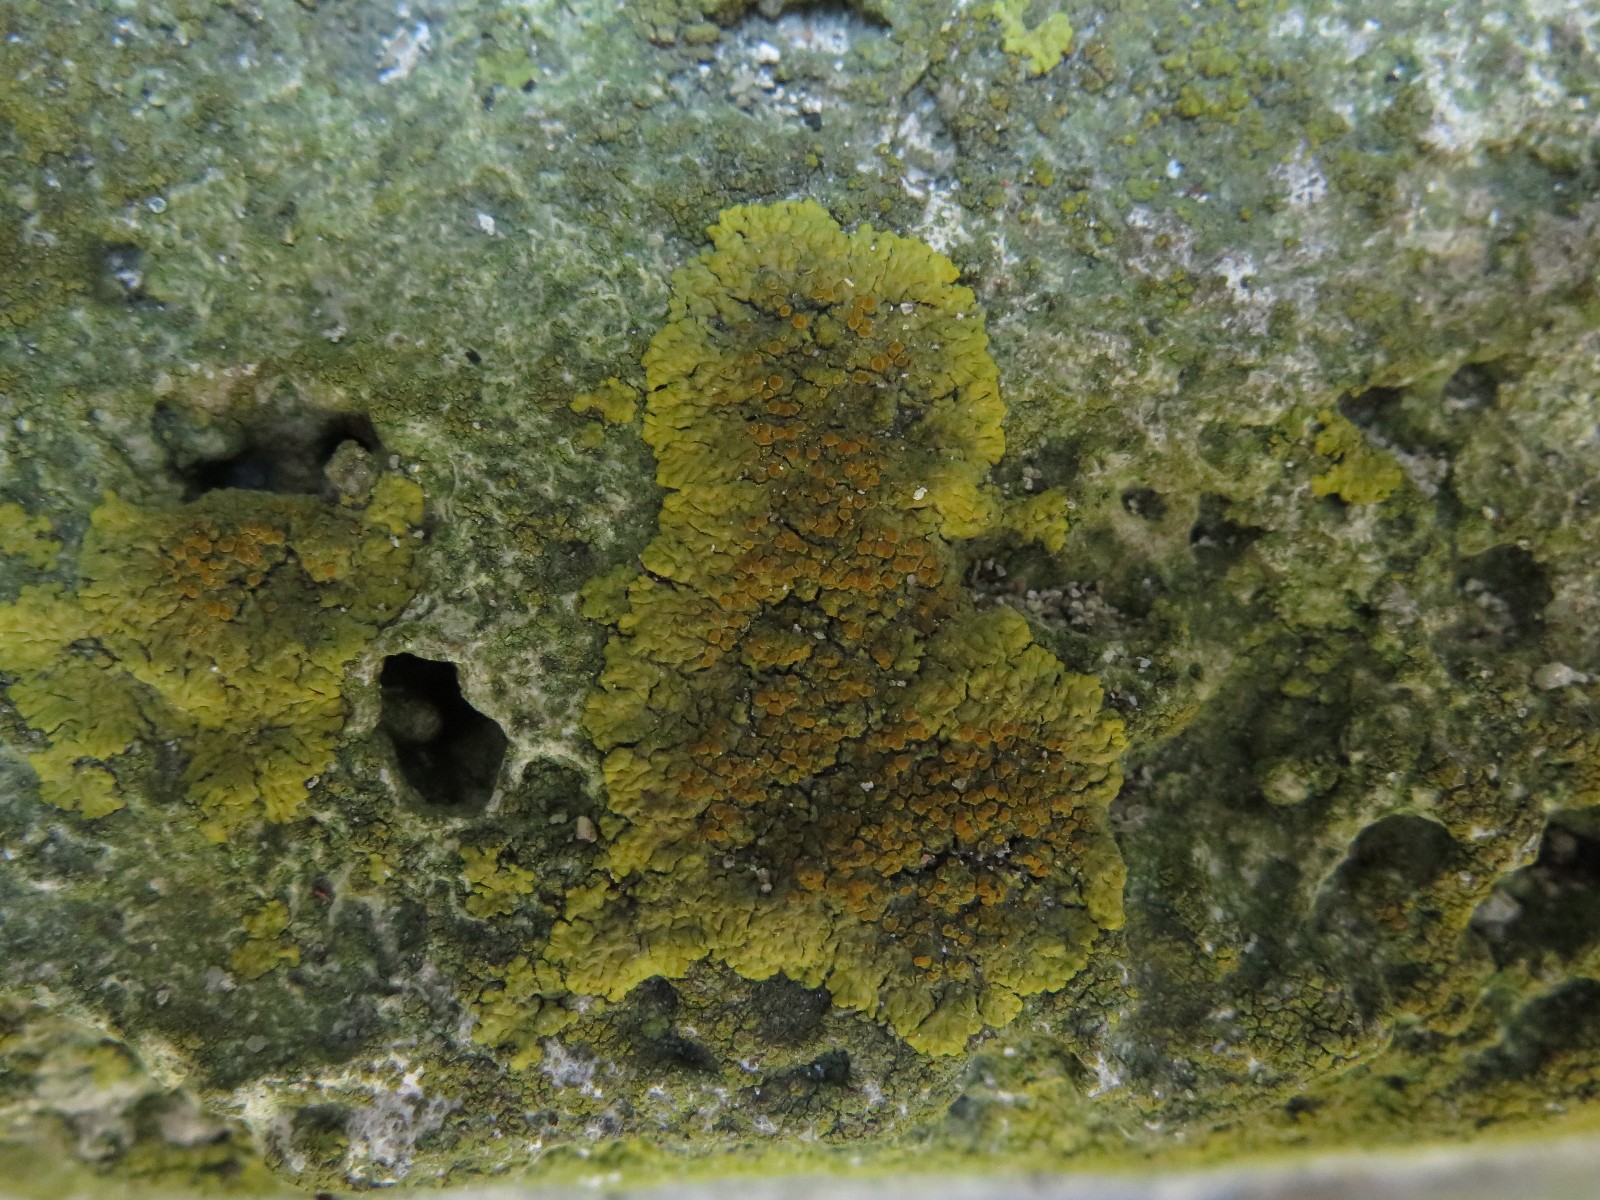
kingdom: Fungi
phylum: Ascomycota
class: Lecanoromycetes
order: Teloschistales
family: Teloschistaceae
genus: Xanthoria
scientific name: Xanthoria parietina
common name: almindelig væggelav
